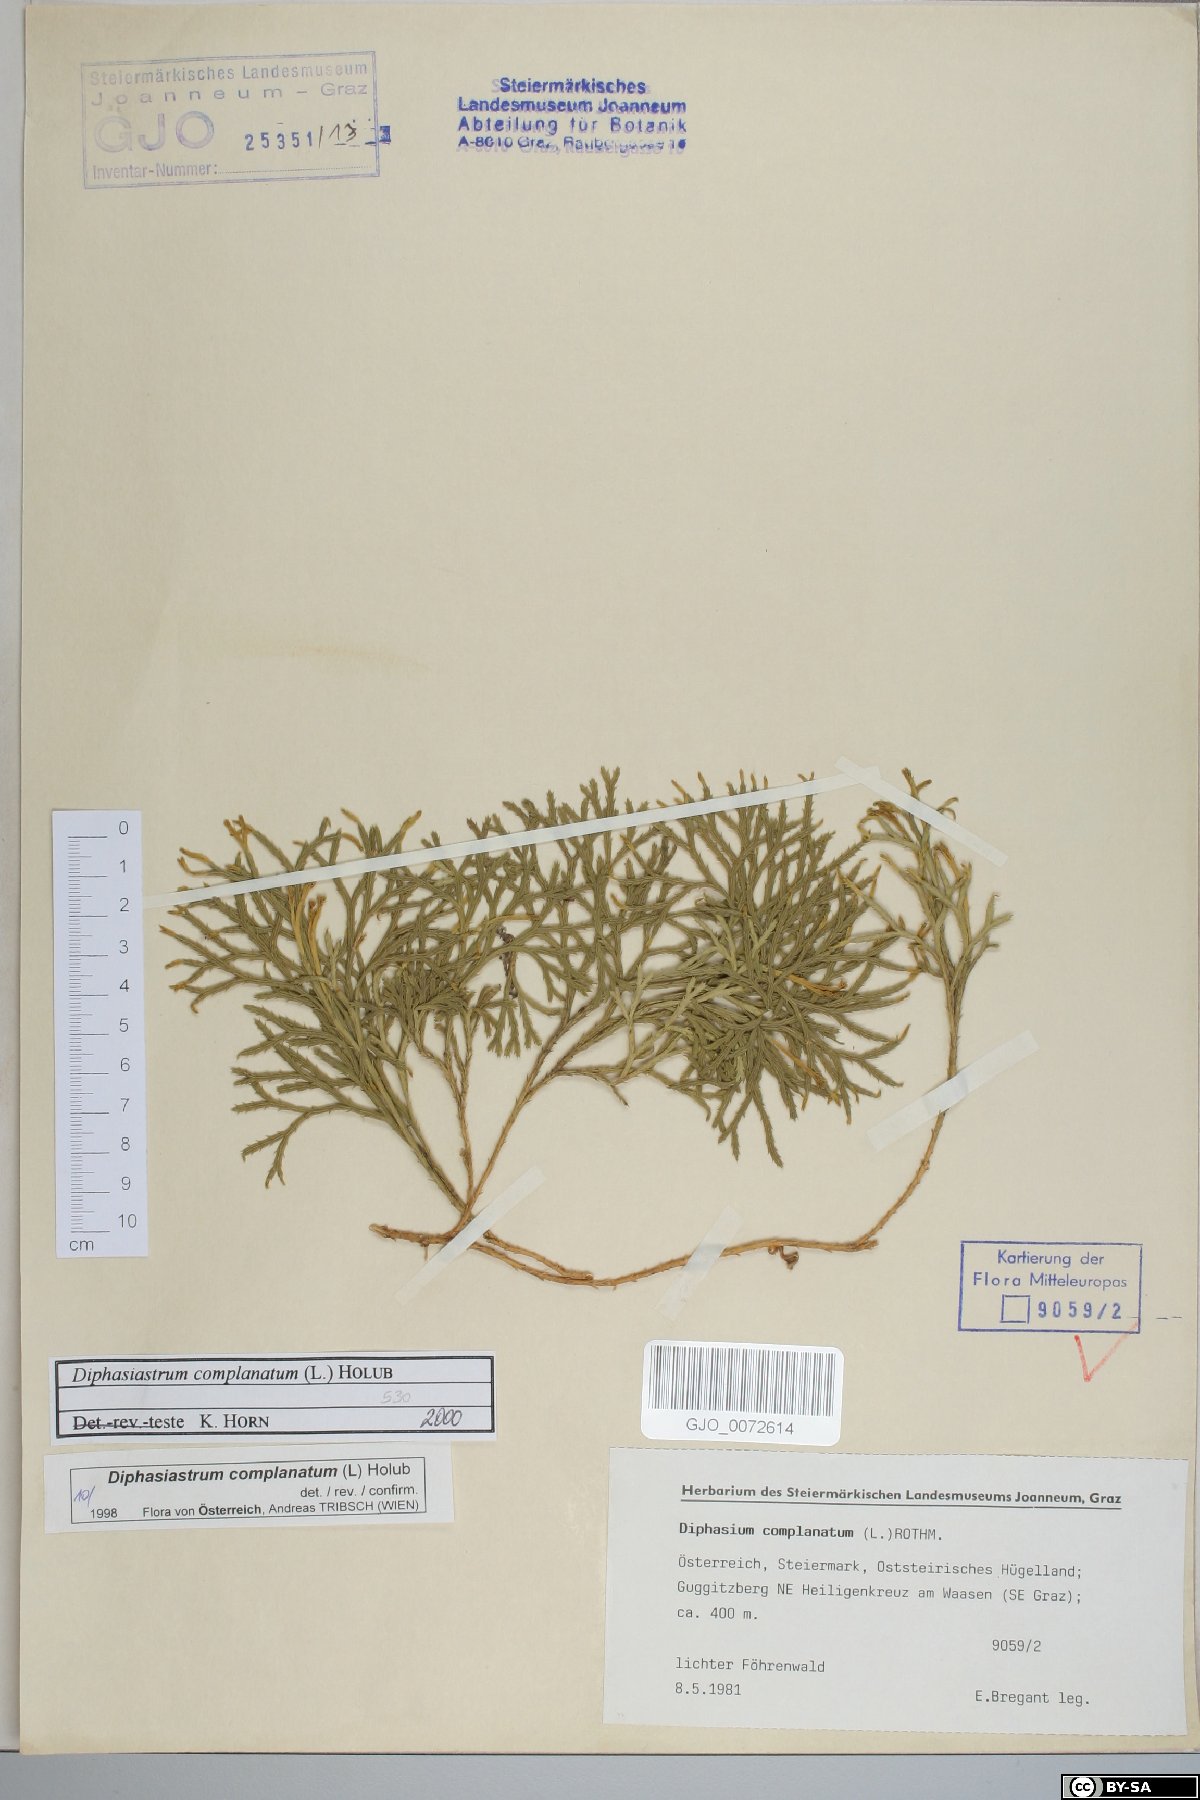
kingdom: Plantae
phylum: Tracheophyta
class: Lycopodiopsida
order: Lycopodiales
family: Lycopodiaceae
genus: Diphasiastrum
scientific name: Diphasiastrum complanatum
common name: Northern running-pine
